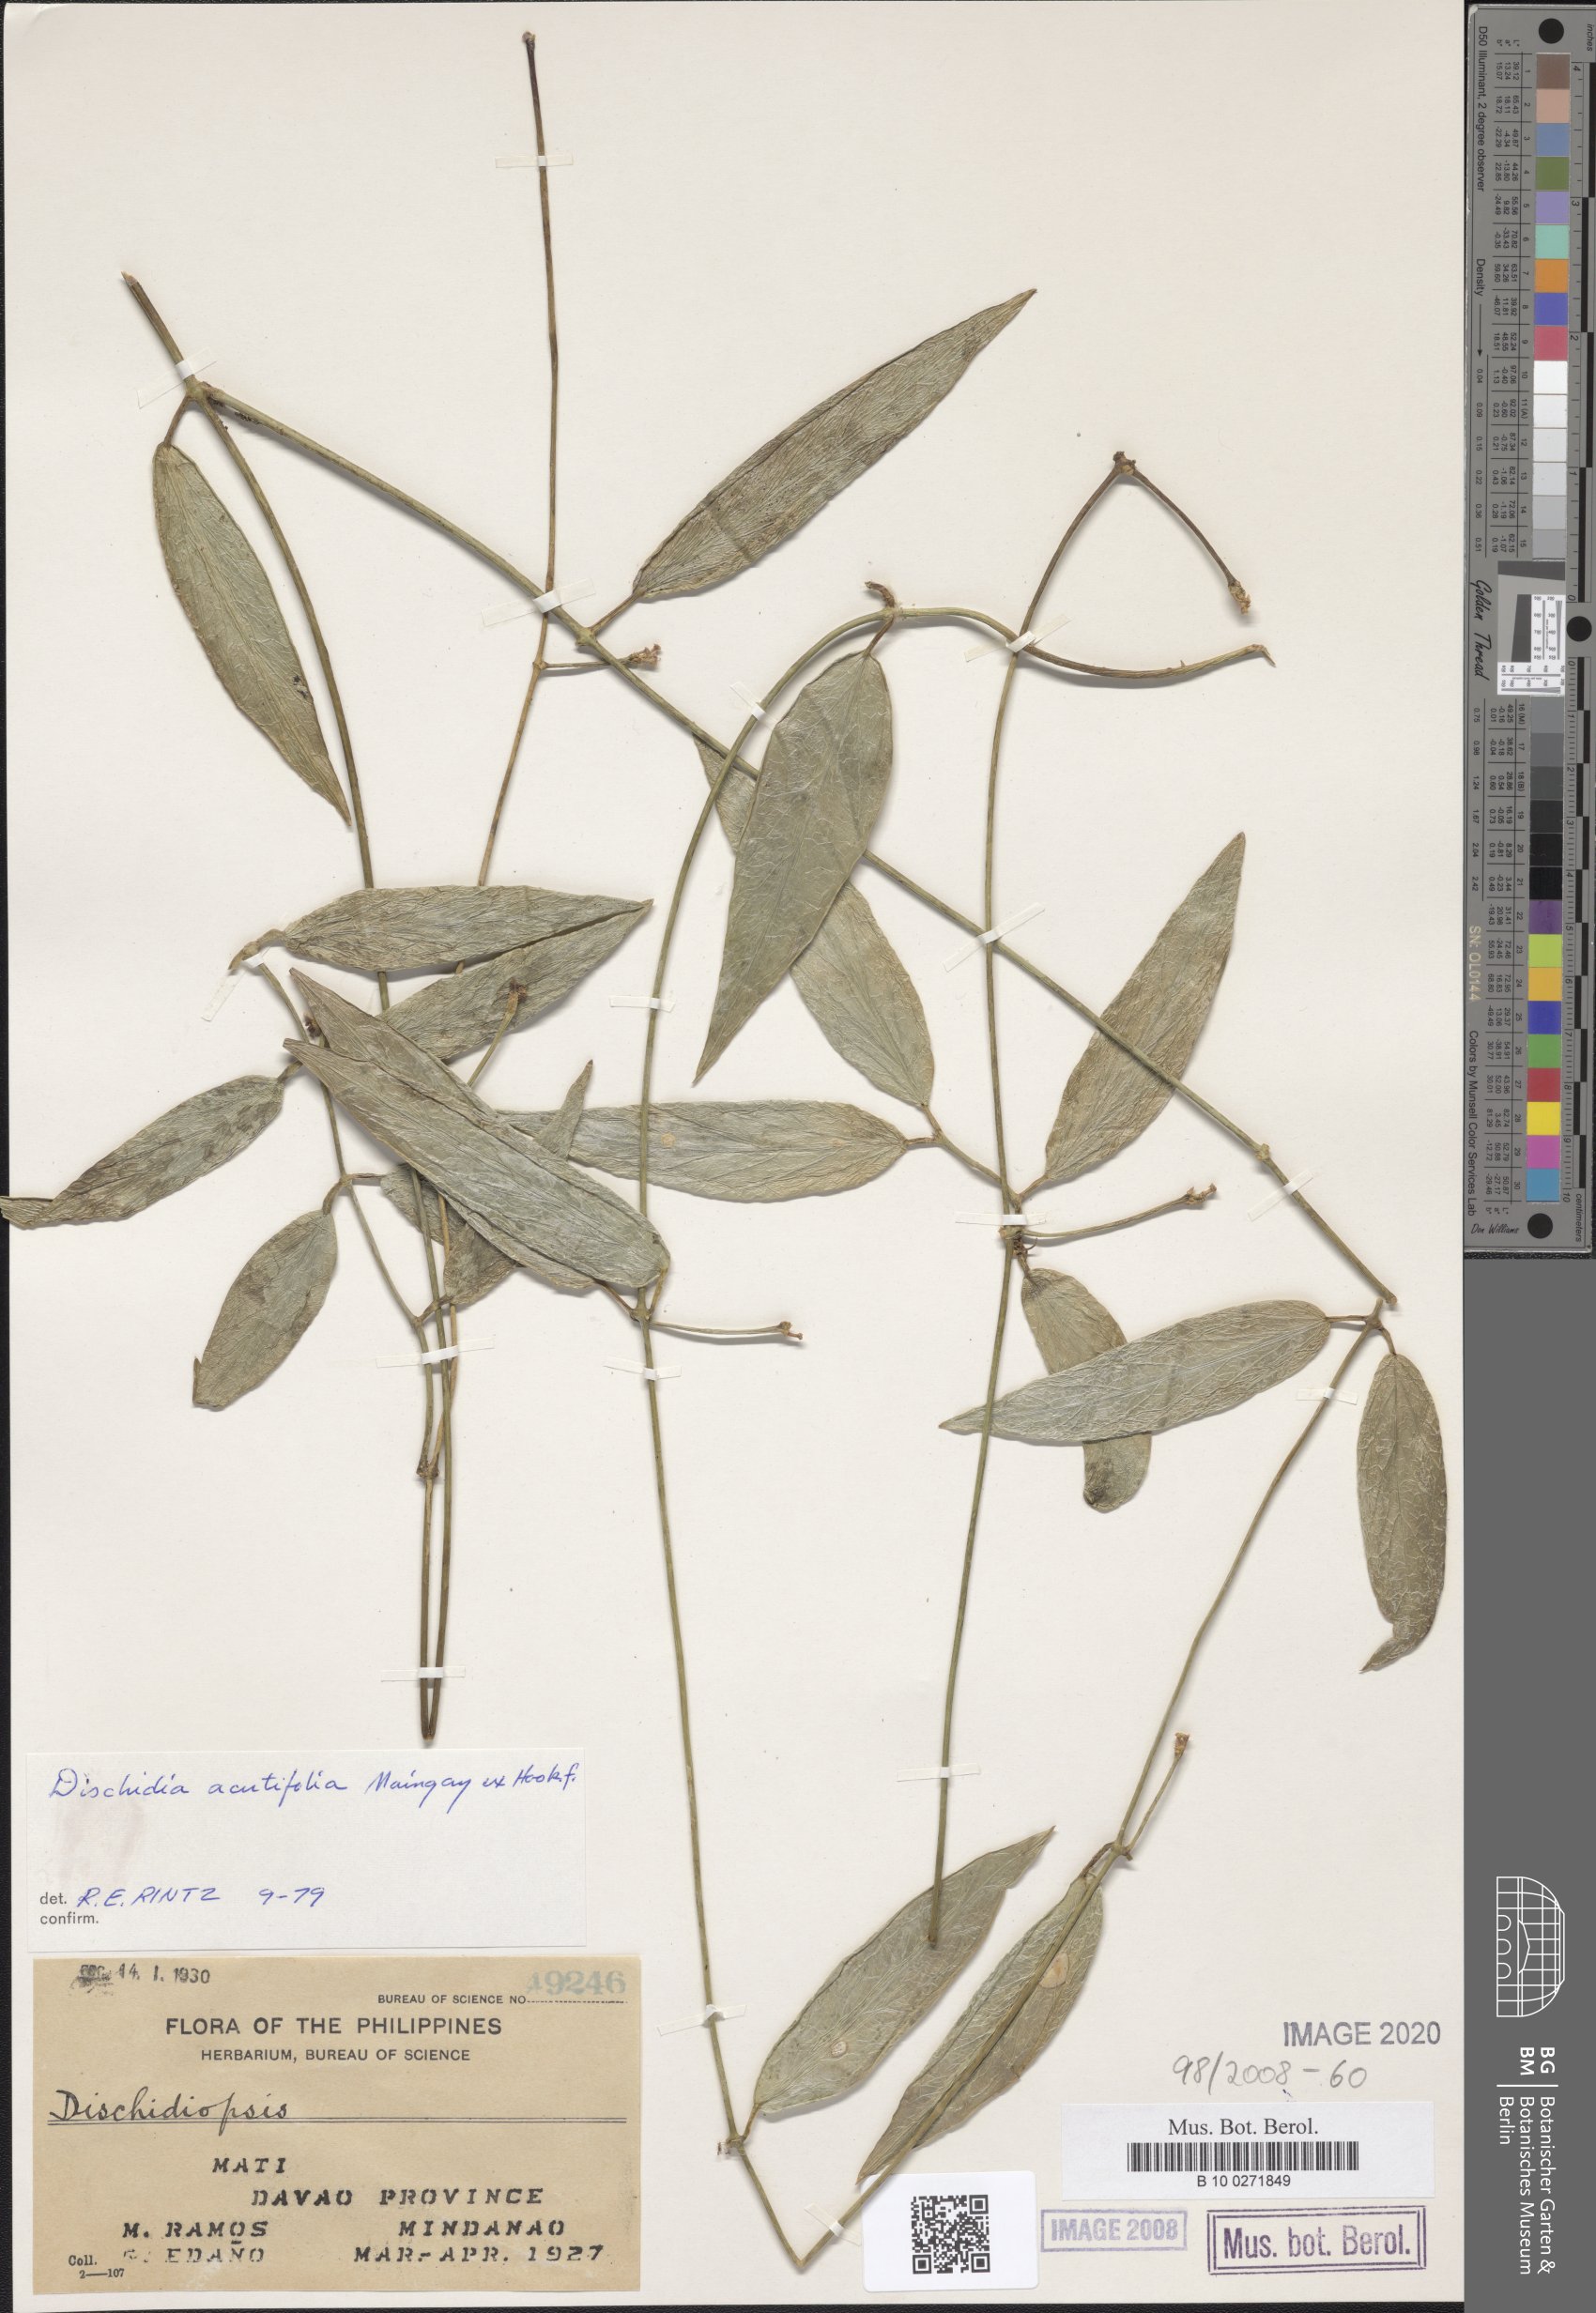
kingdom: Plantae
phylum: Tracheophyta
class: Magnoliopsida
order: Gentianales
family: Apocynaceae
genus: Dischidia
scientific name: Dischidia acutifolia
